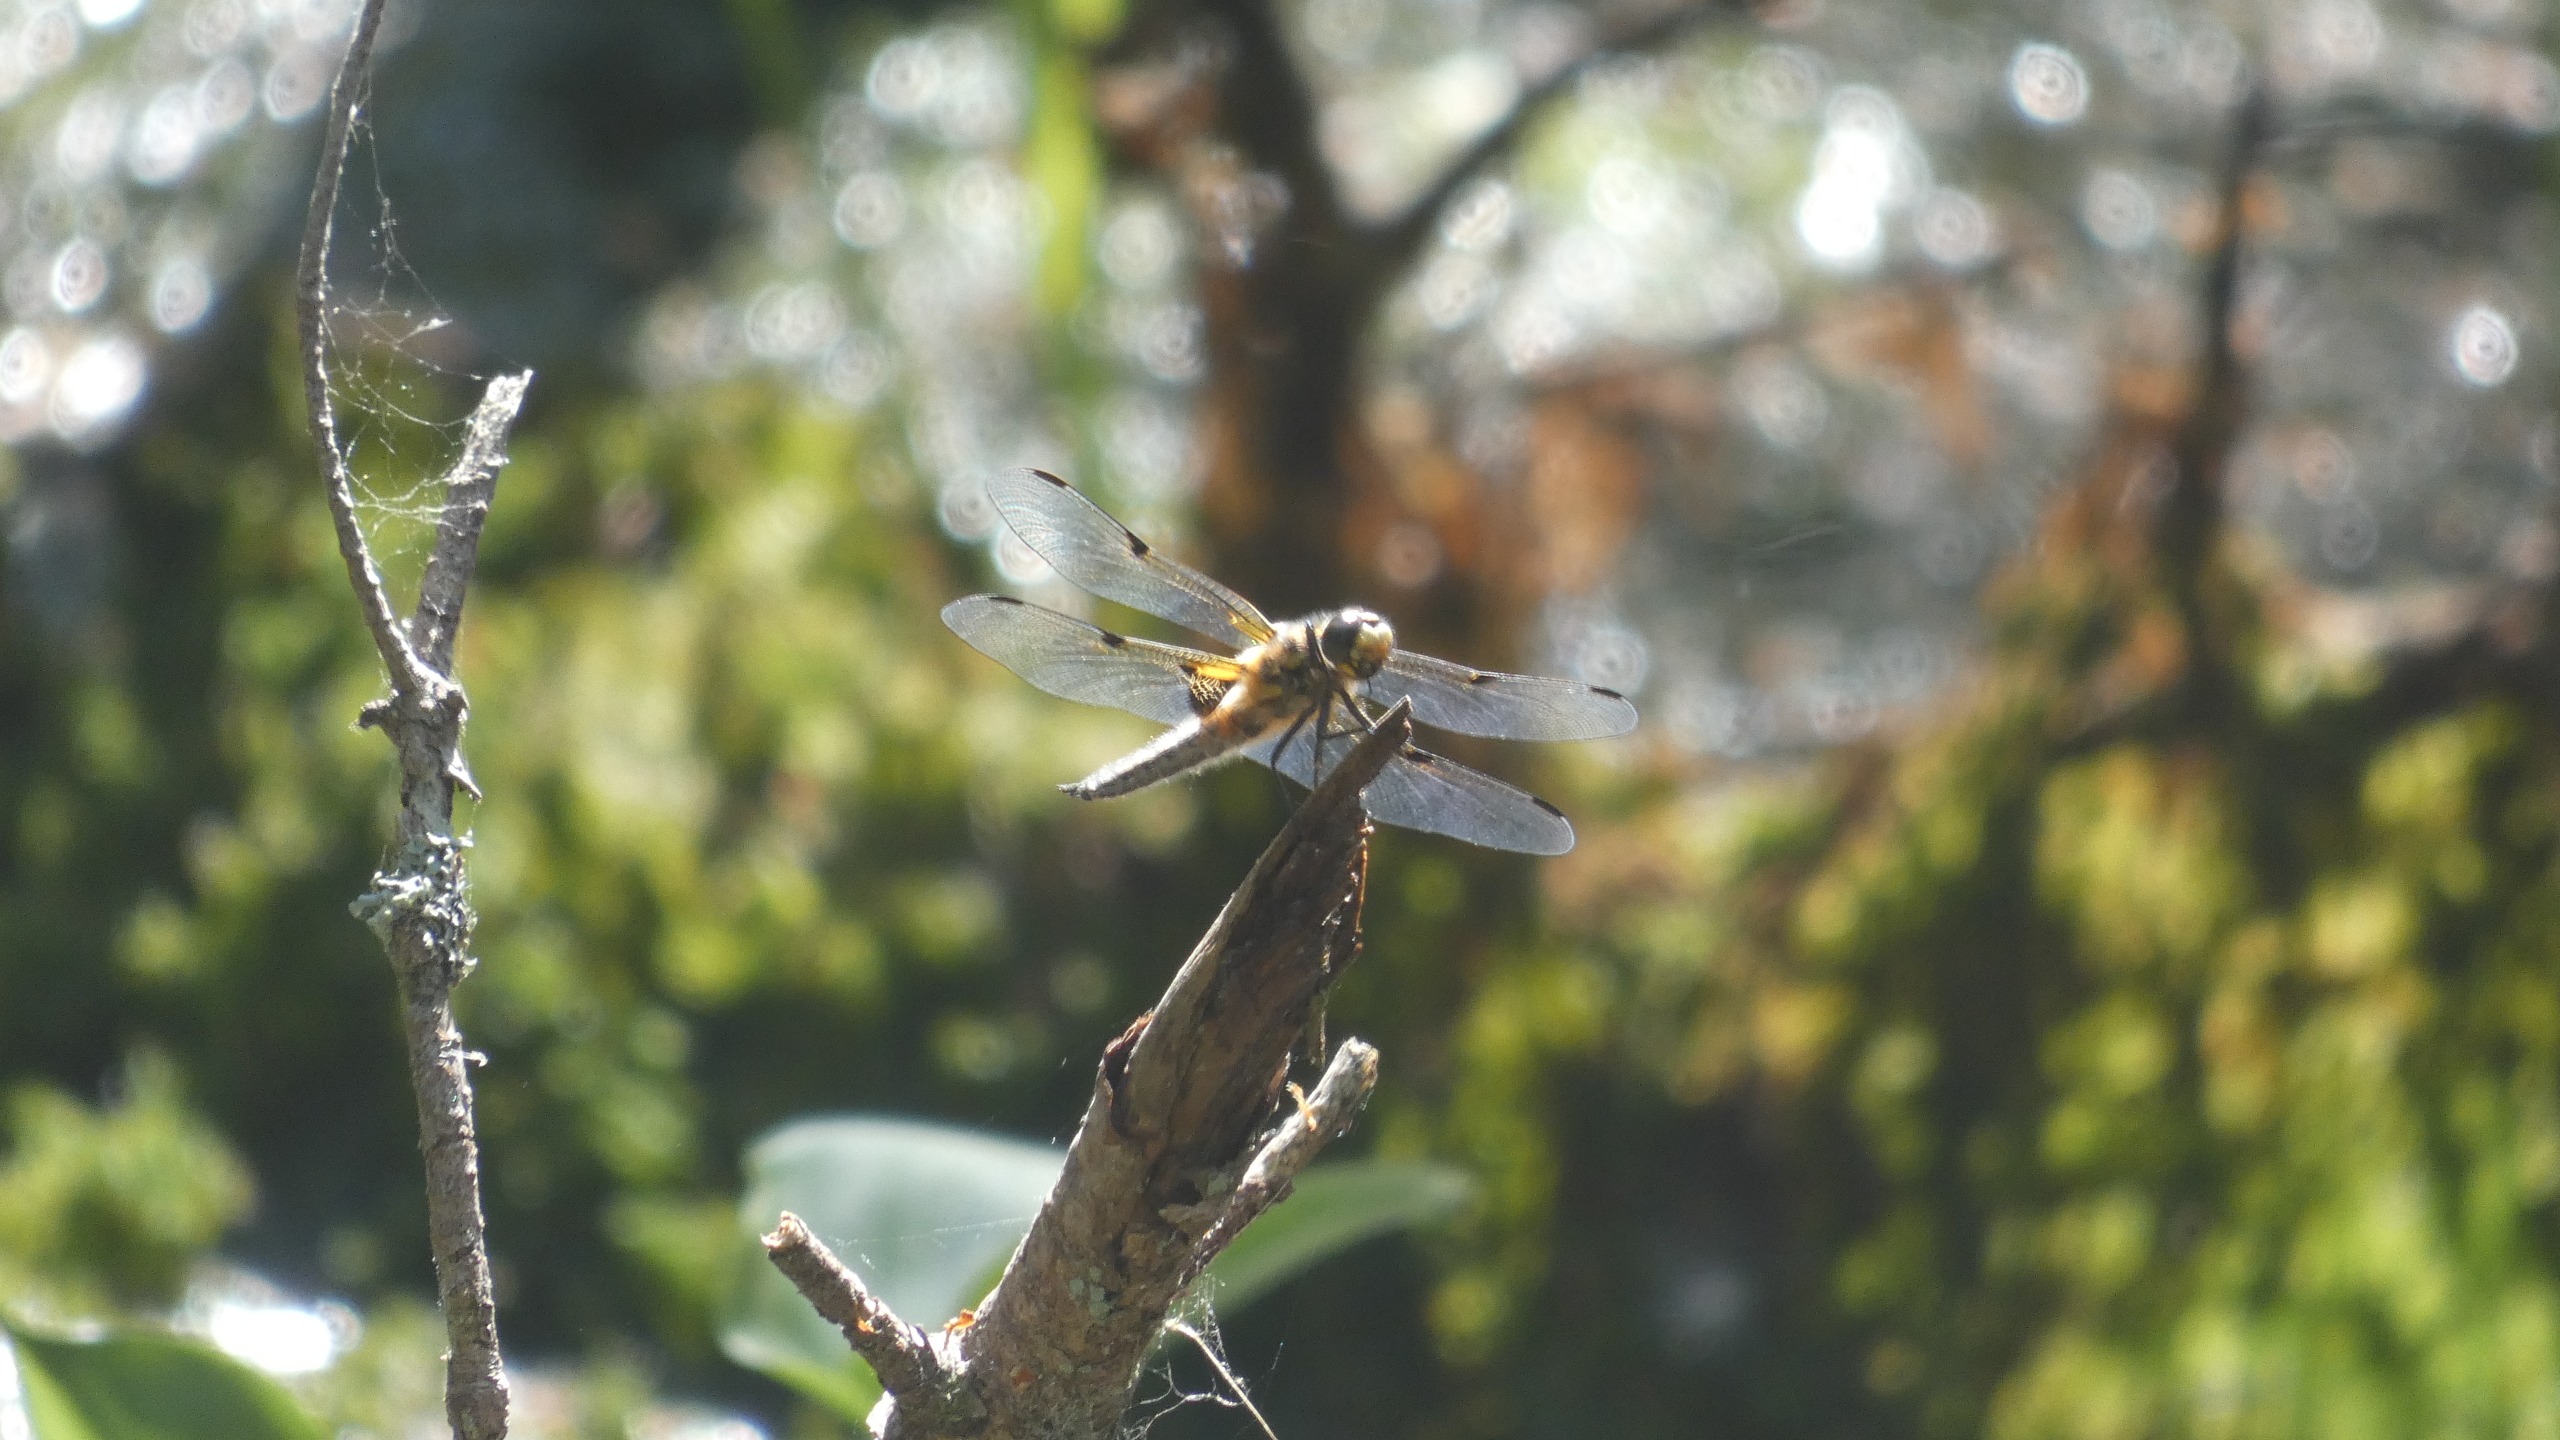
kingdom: Animalia
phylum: Arthropoda
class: Insecta
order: Odonata
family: Libellulidae
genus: Libellula
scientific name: Libellula quadrimaculata
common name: Fireplettet libel
